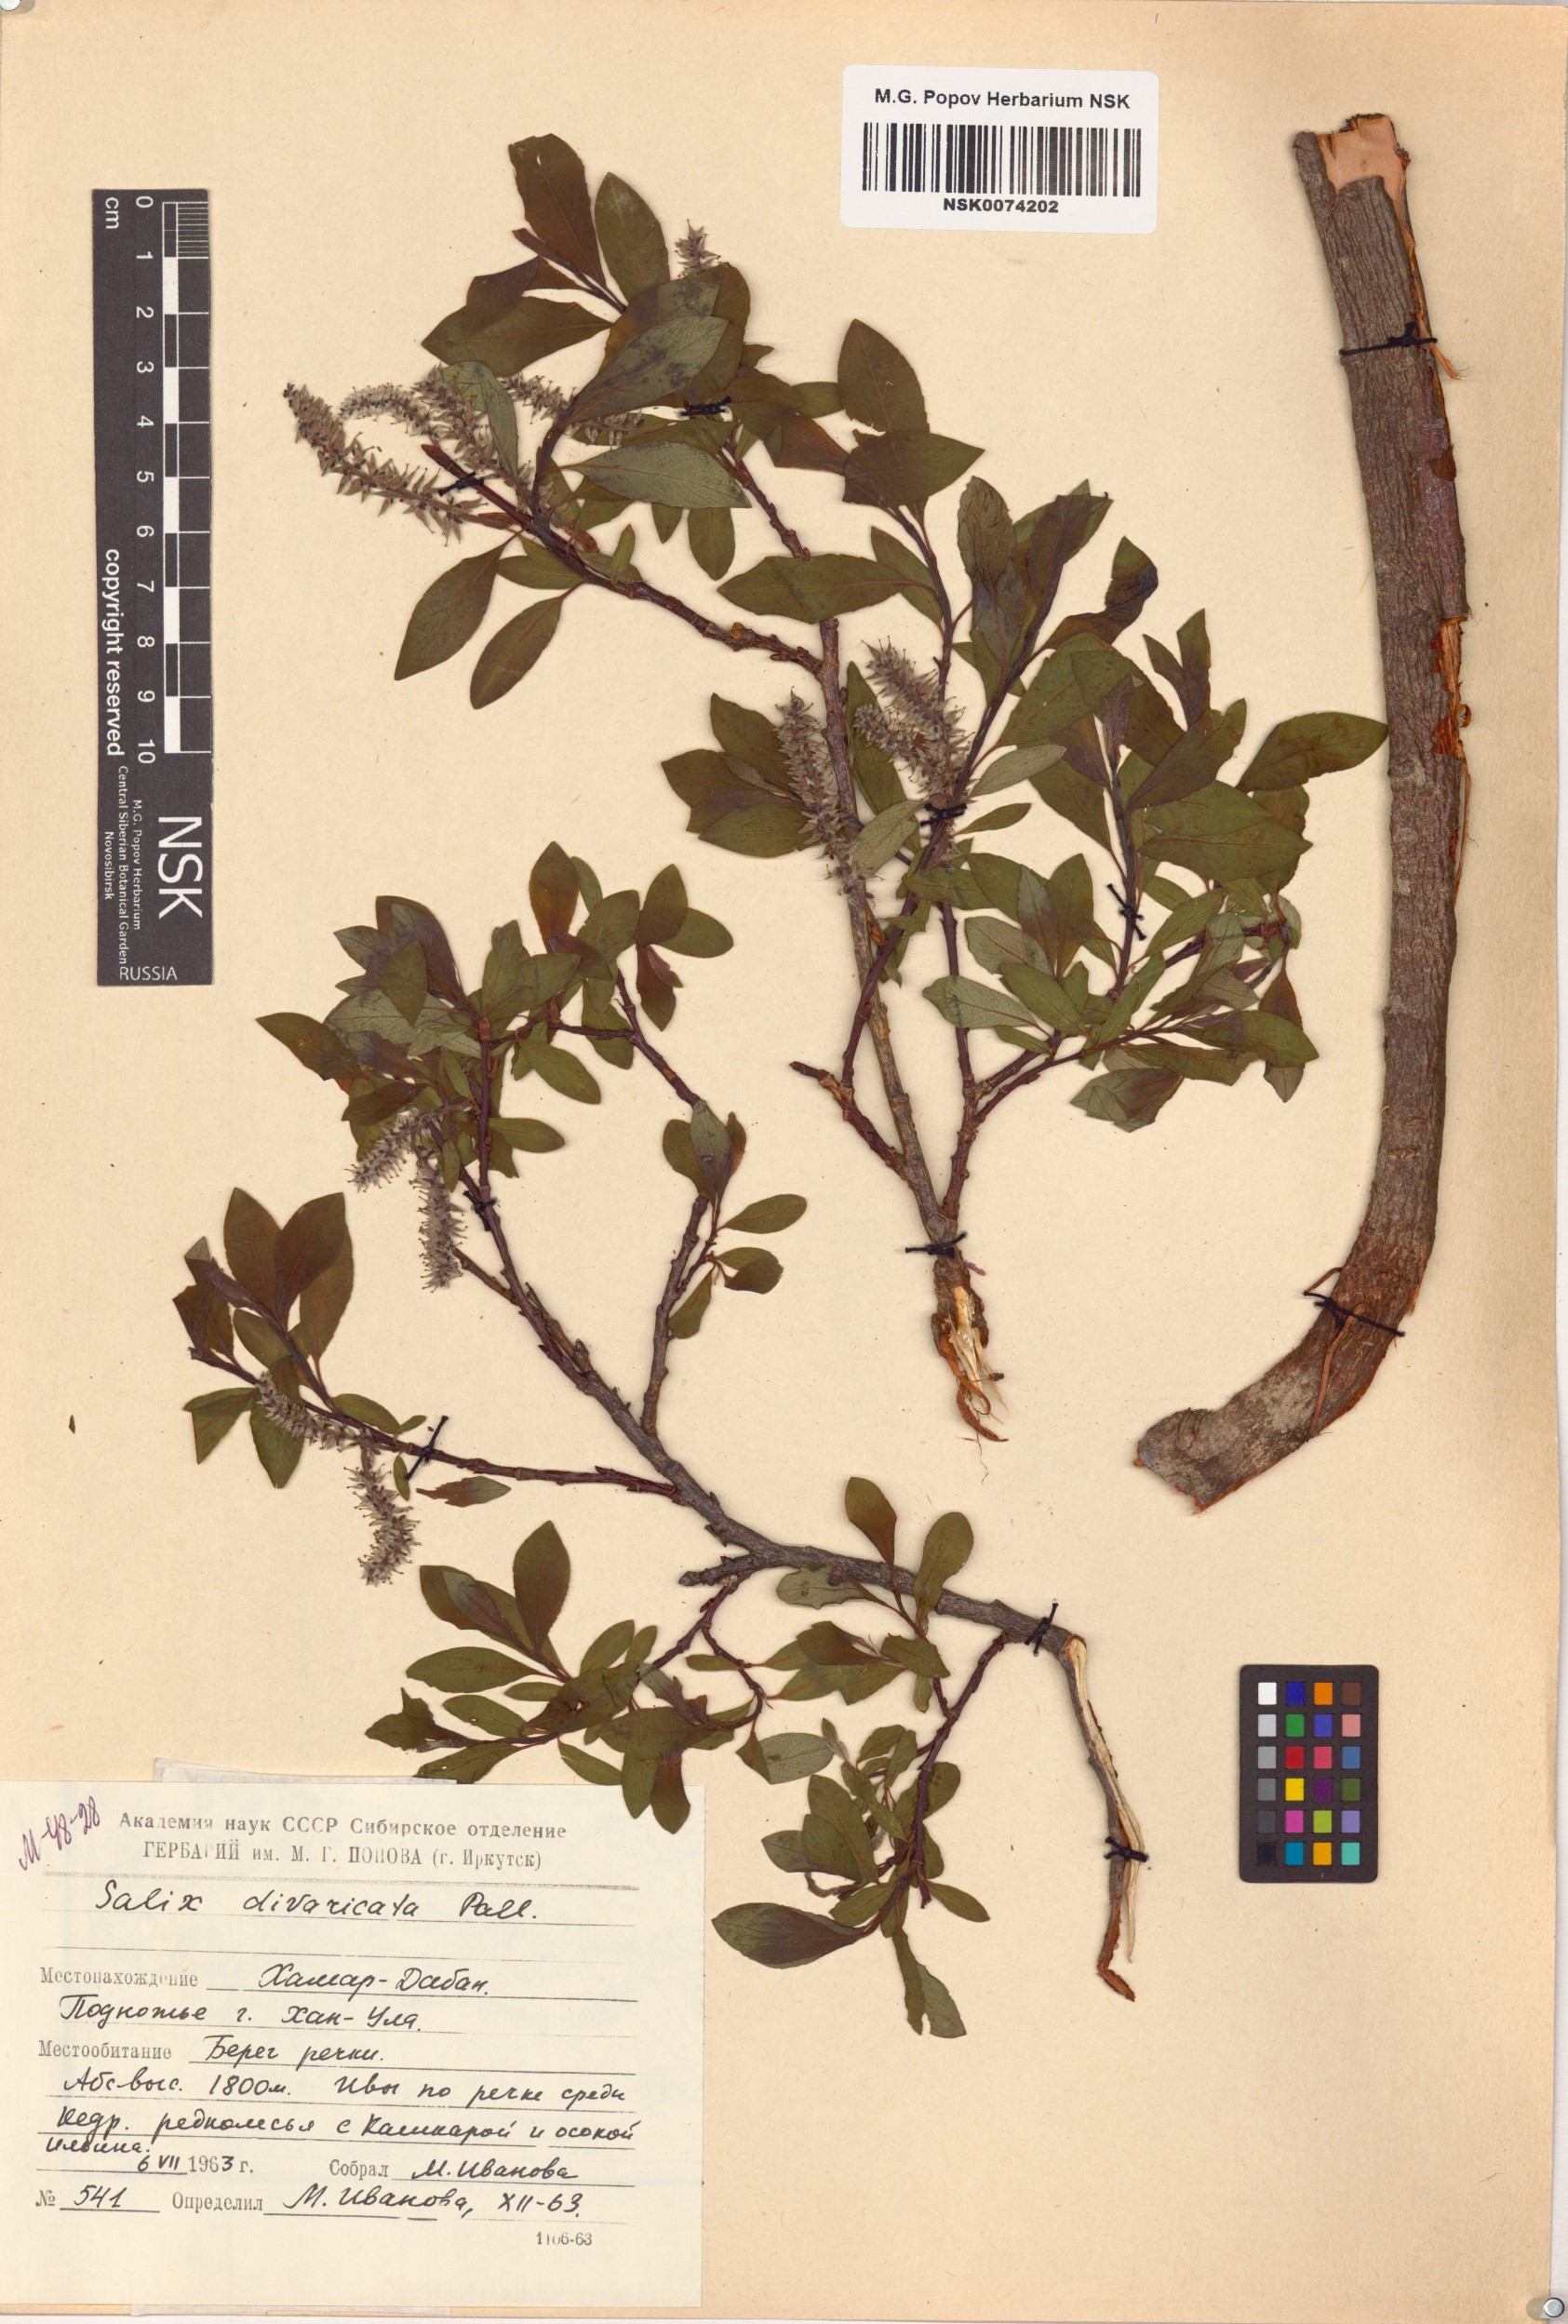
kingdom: Plantae
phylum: Tracheophyta
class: Magnoliopsida
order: Malpighiales
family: Salicaceae
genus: Salix
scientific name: Salix divaricata
